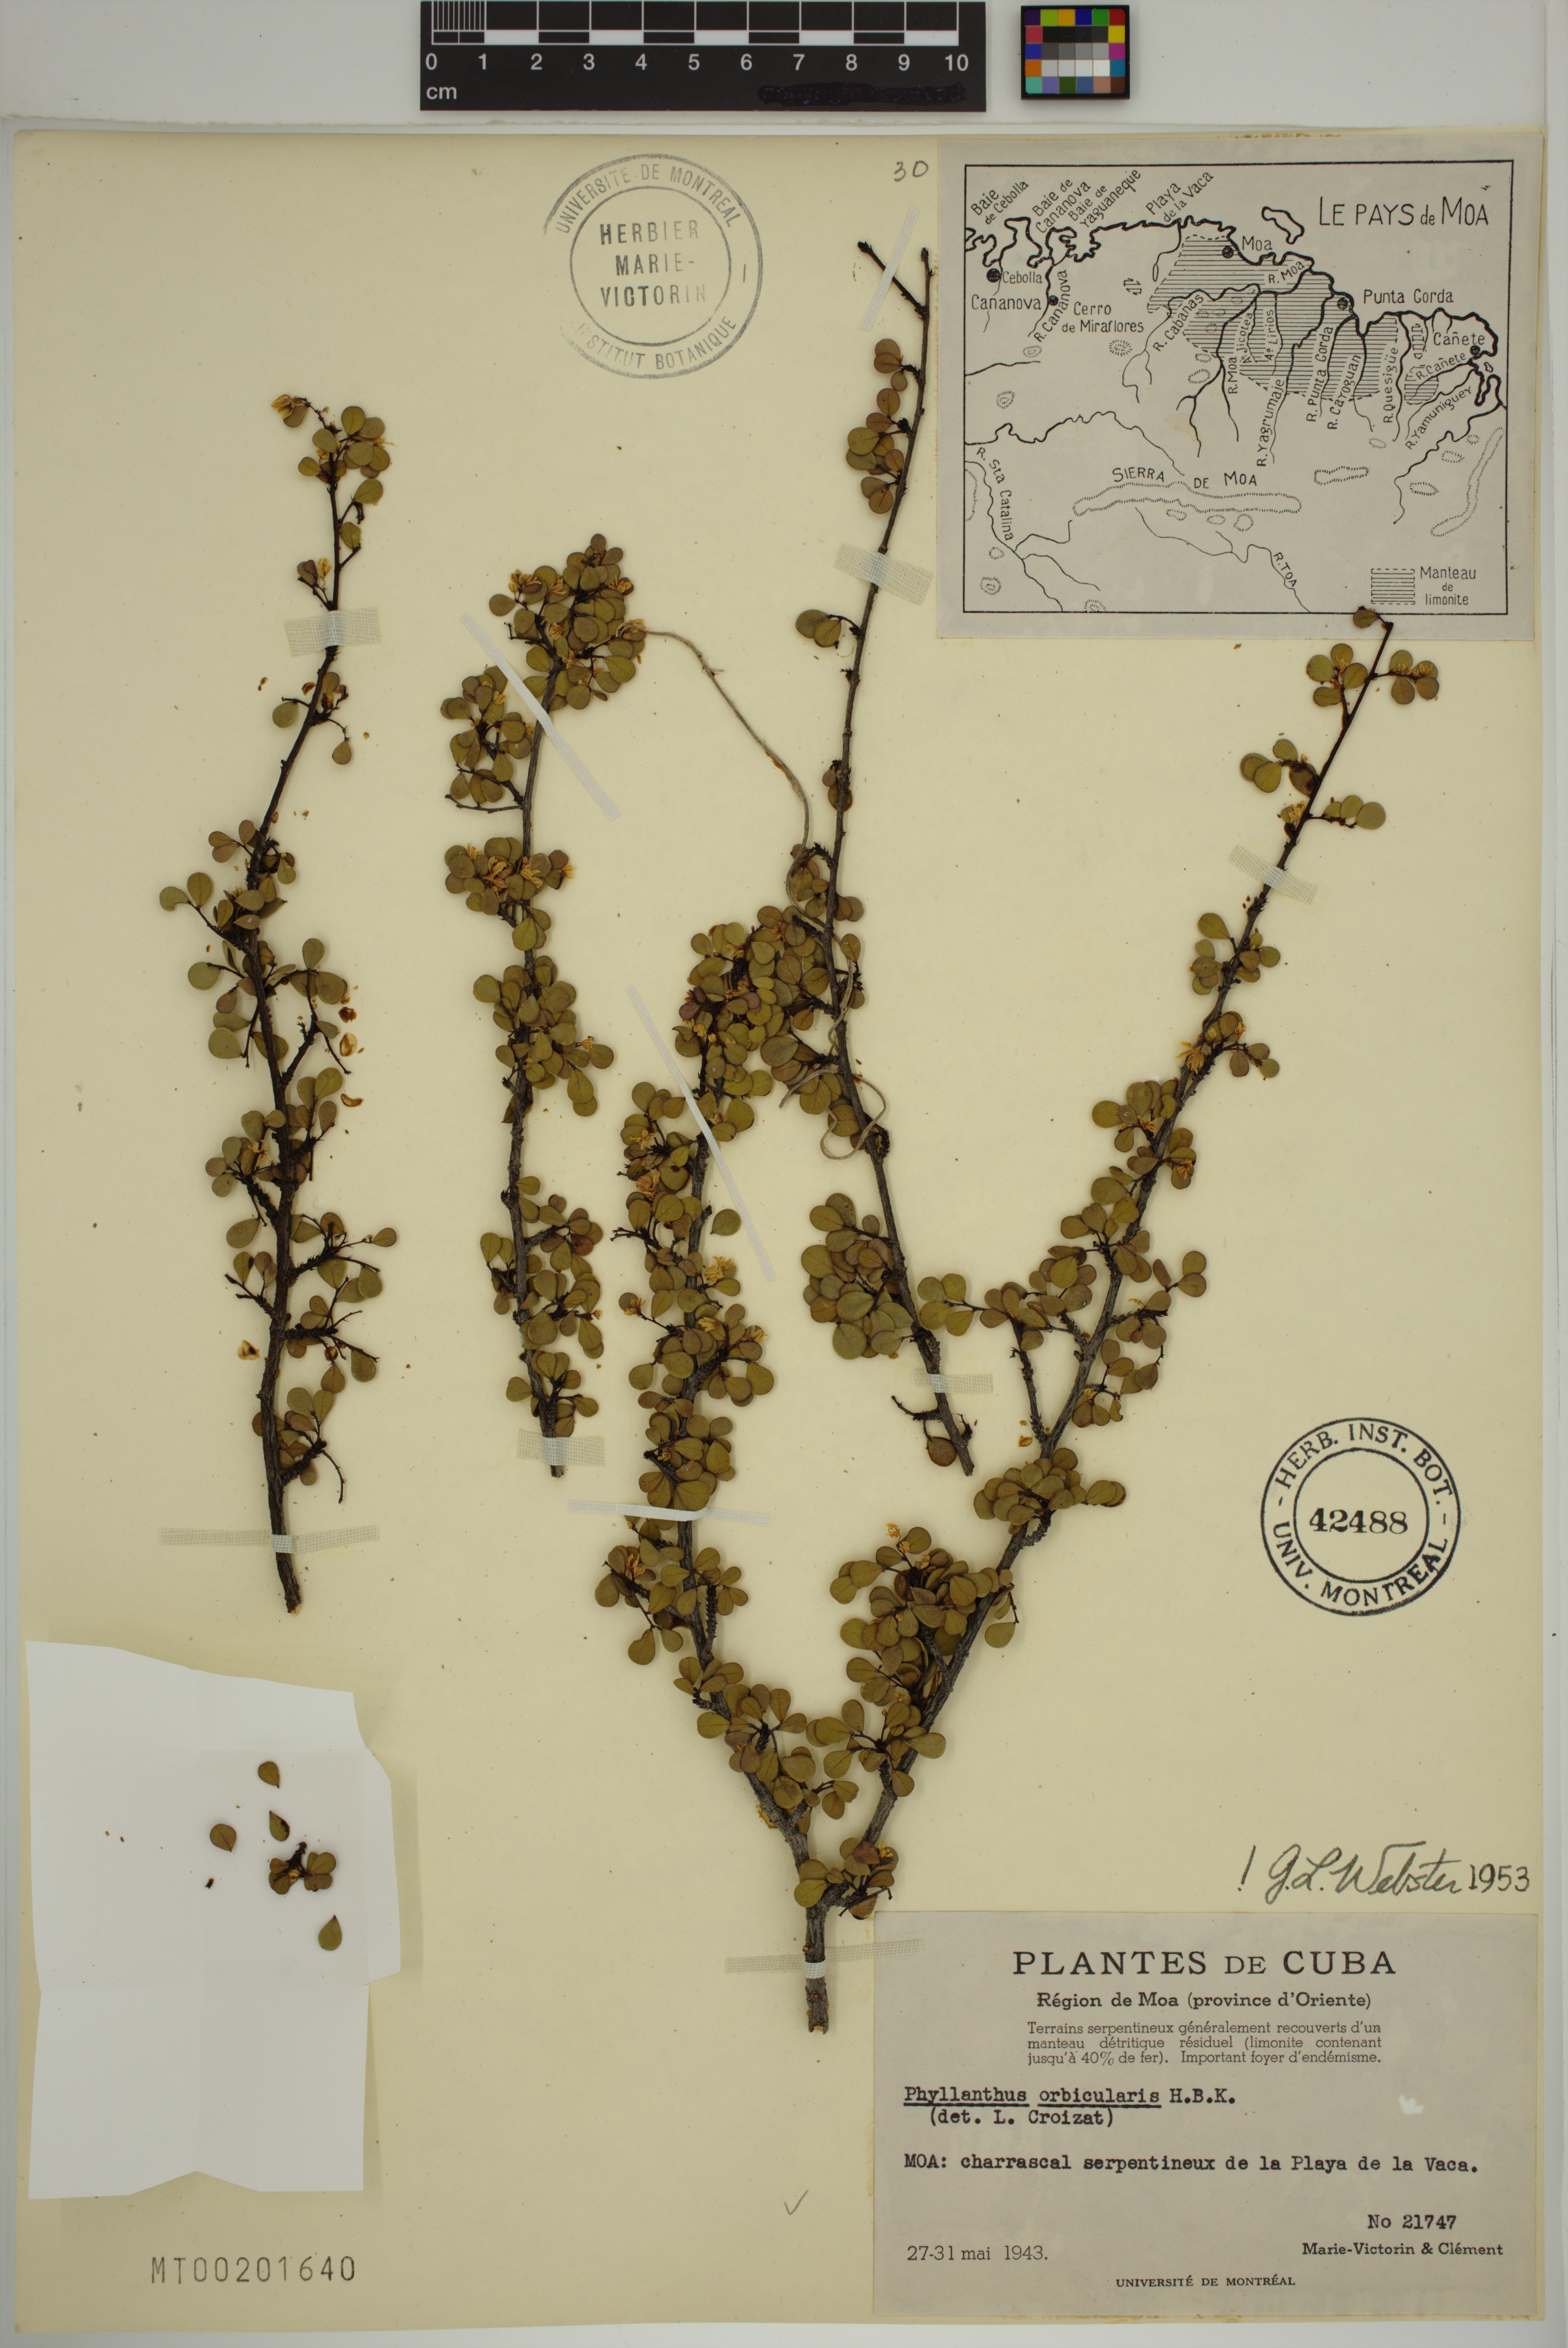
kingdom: Plantae
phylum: Tracheophyta
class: Magnoliopsida
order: Malpighiales
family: Phyllanthaceae
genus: Phyllanthus
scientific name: Phyllanthus orbicularis
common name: Wedge leaf-flower
